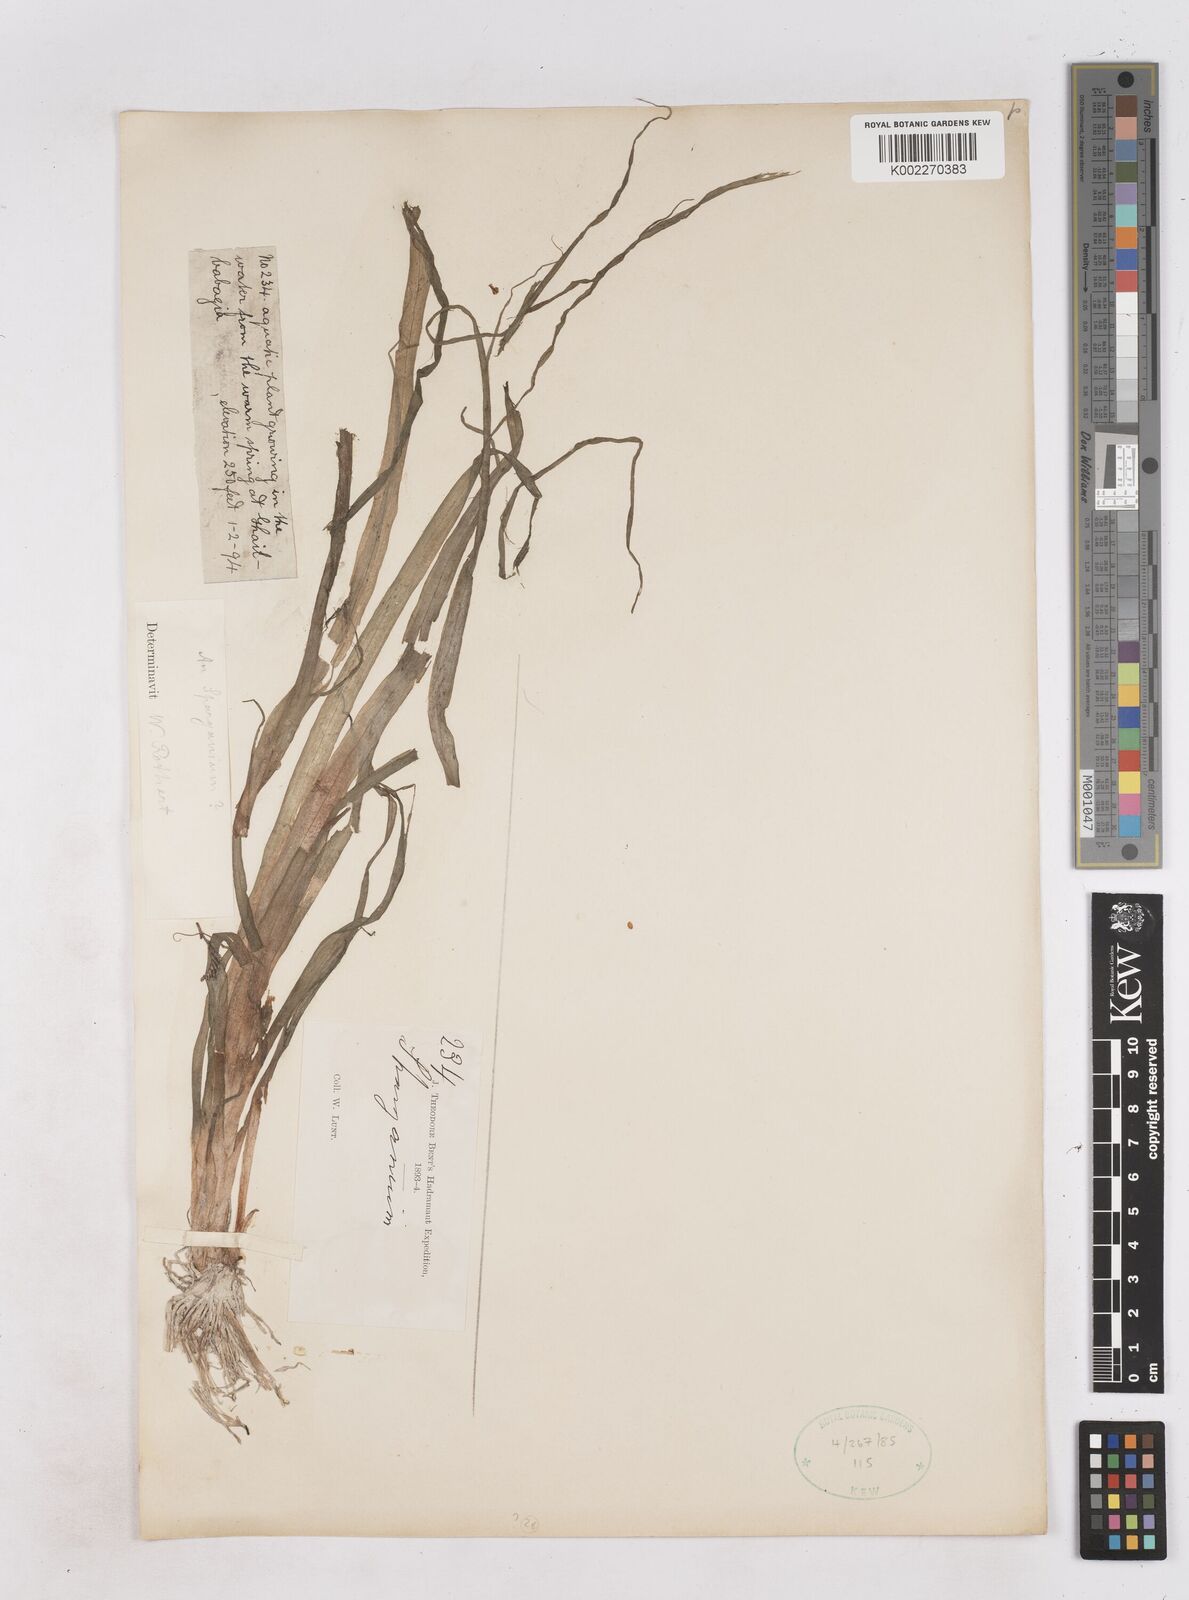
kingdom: Plantae
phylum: Tracheophyta
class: Liliopsida
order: Poales
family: Typhaceae
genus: Sparganium
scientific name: Sparganium subglobosum
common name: Burr­-reed
